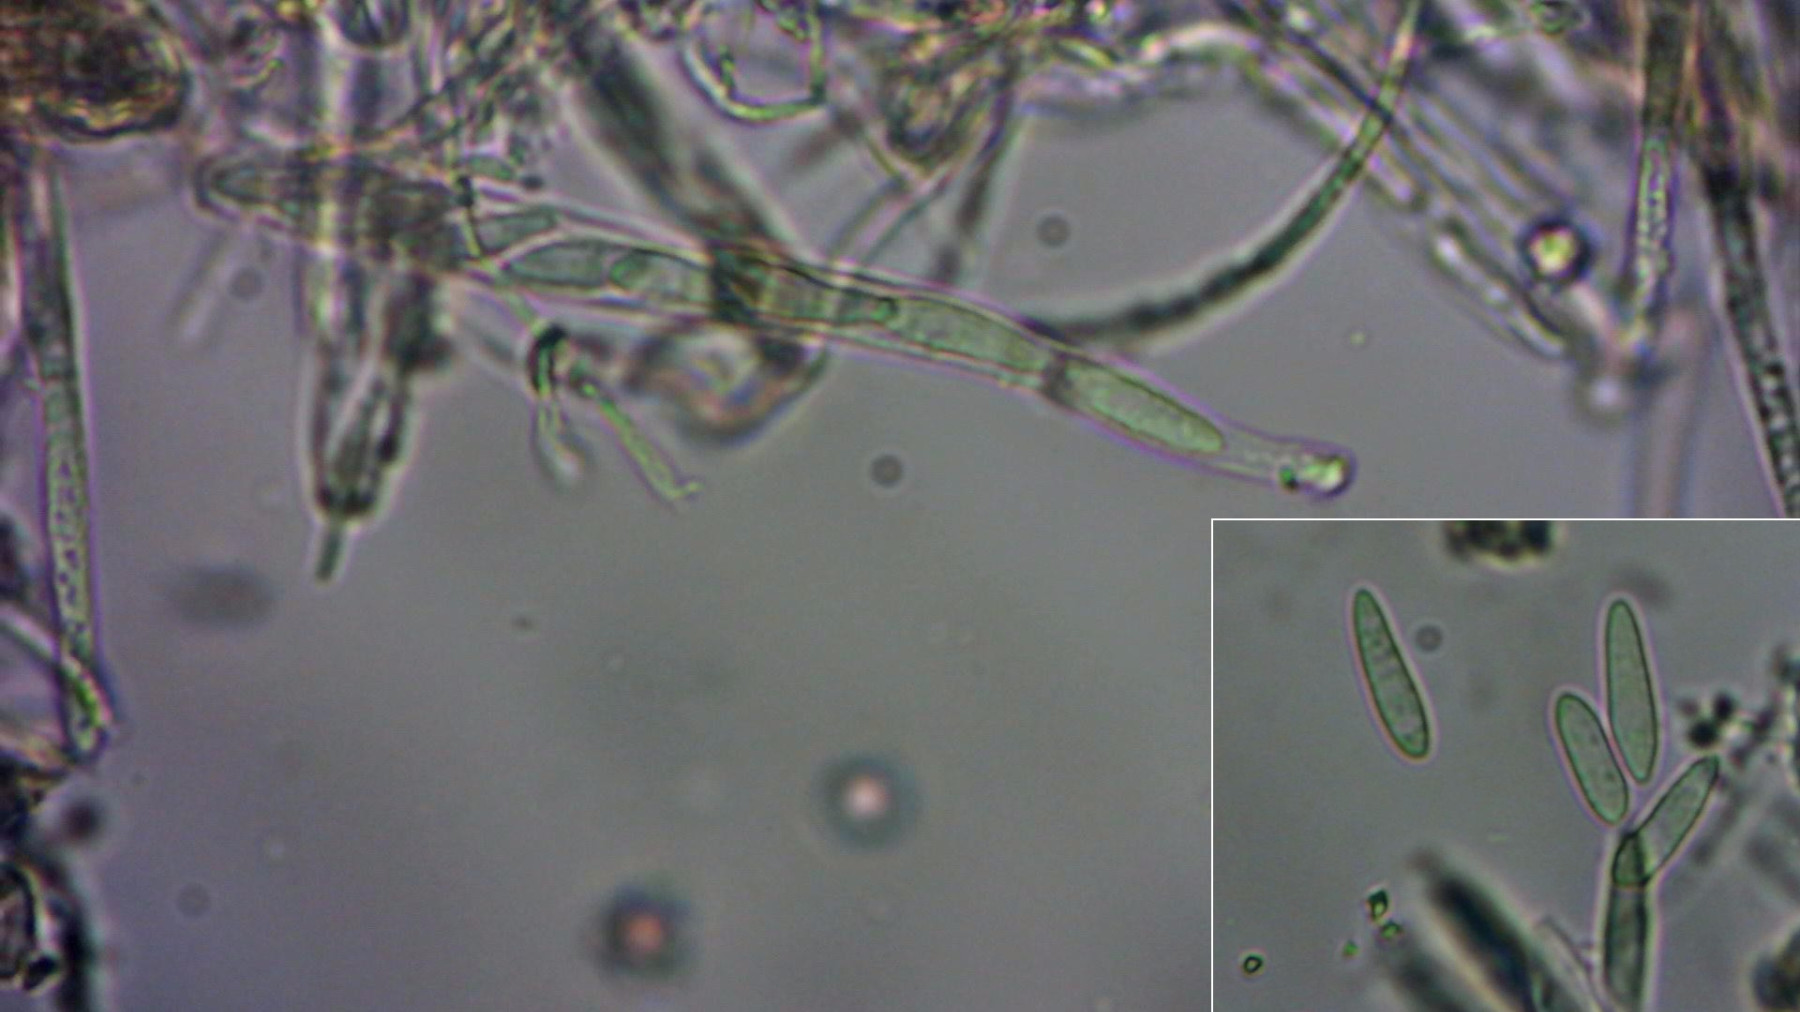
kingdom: Fungi
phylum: Ascomycota
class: Leotiomycetes
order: Helotiales
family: Helotiaceae
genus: Hymenoscyphus
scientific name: Hymenoscyphus calyculus
